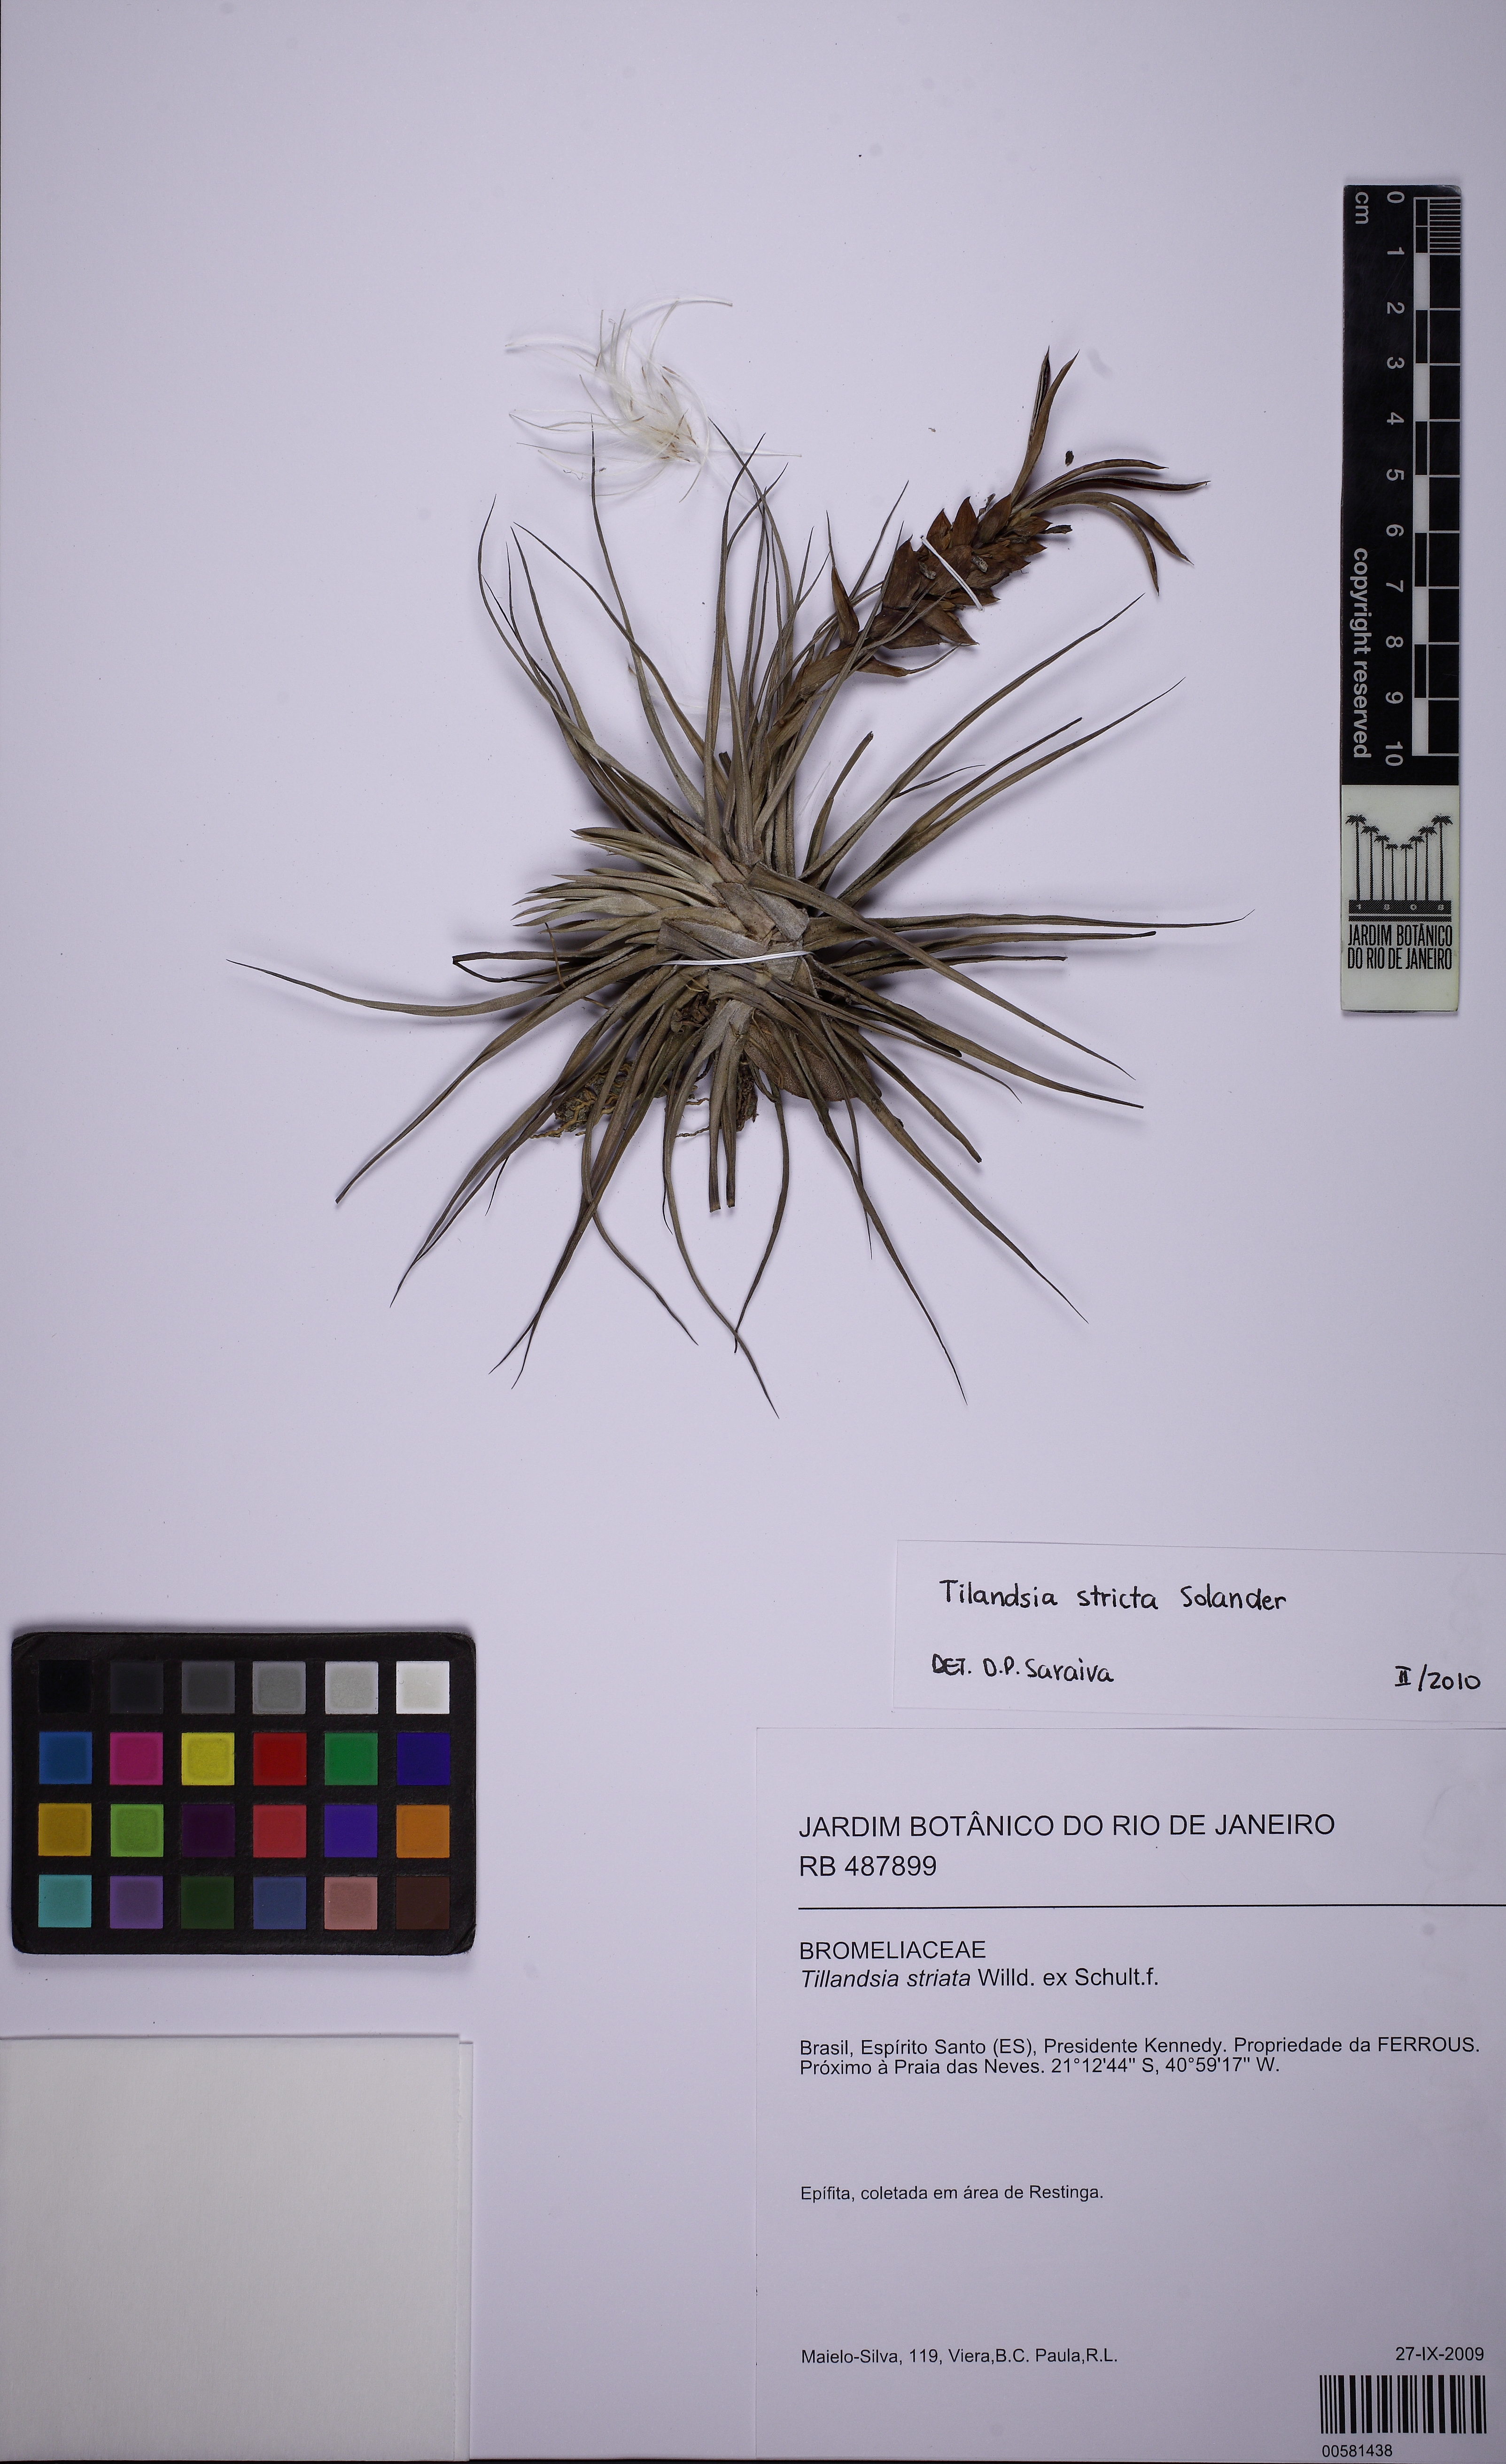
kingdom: Plantae
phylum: Tracheophyta
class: Liliopsida
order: Poales
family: Bromeliaceae
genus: Tillandsia
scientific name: Tillandsia stricta
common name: Airplant
